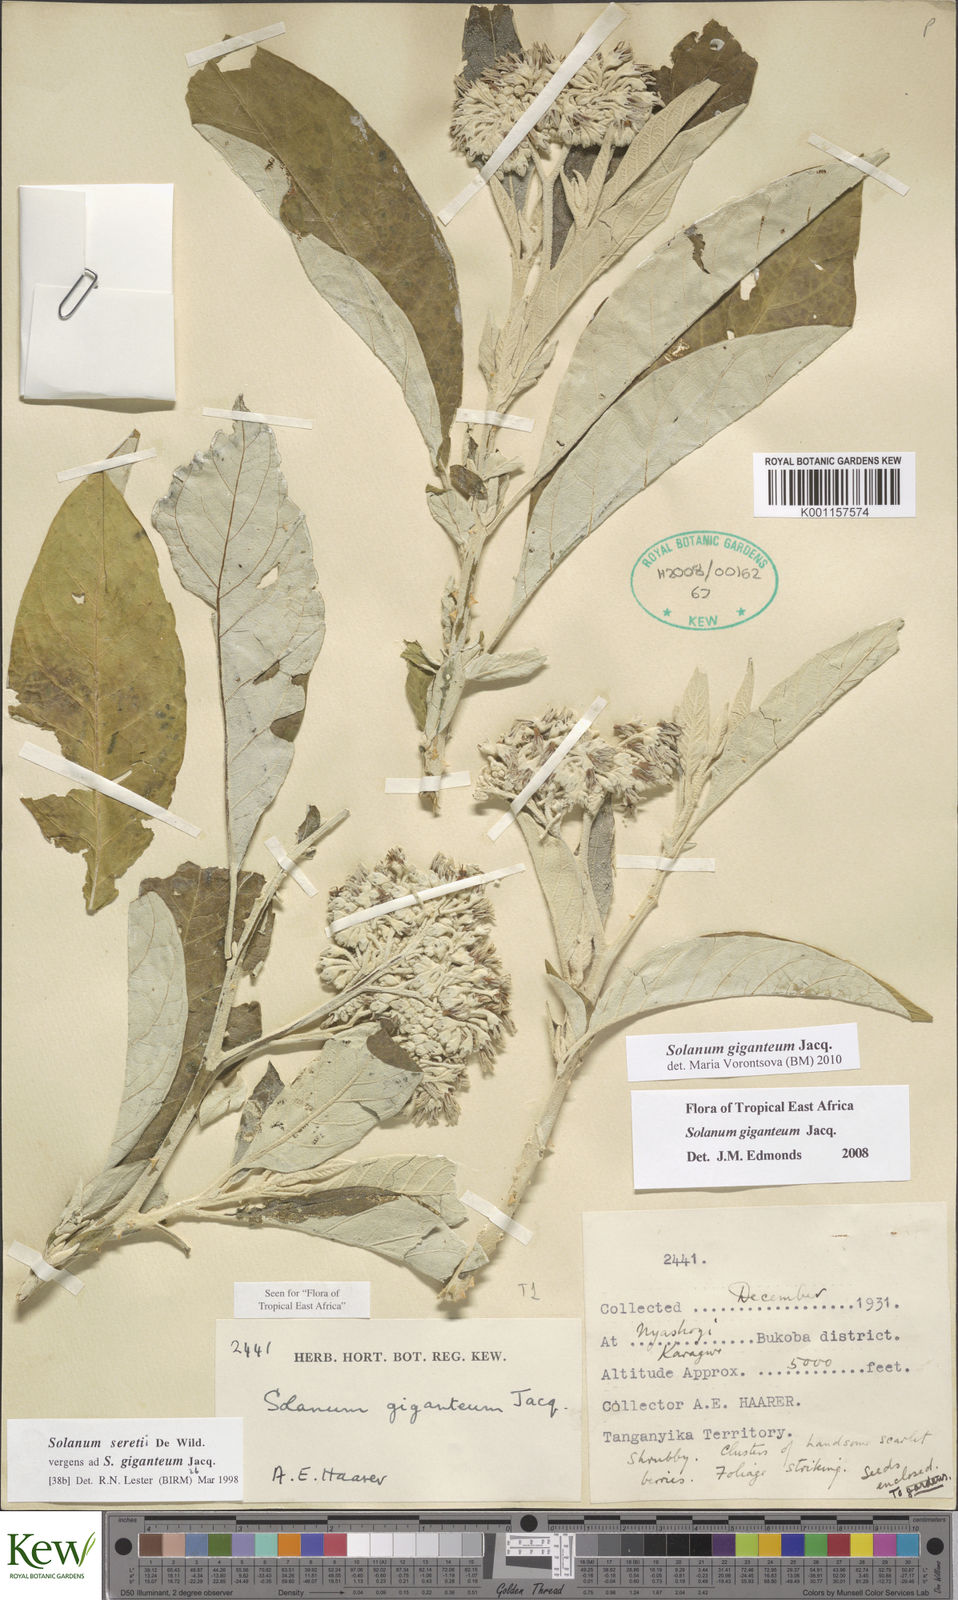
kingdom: Plantae
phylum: Tracheophyta
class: Magnoliopsida
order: Solanales
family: Solanaceae
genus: Solanum
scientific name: Solanum giganteum
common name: Healing-leaf-tree
